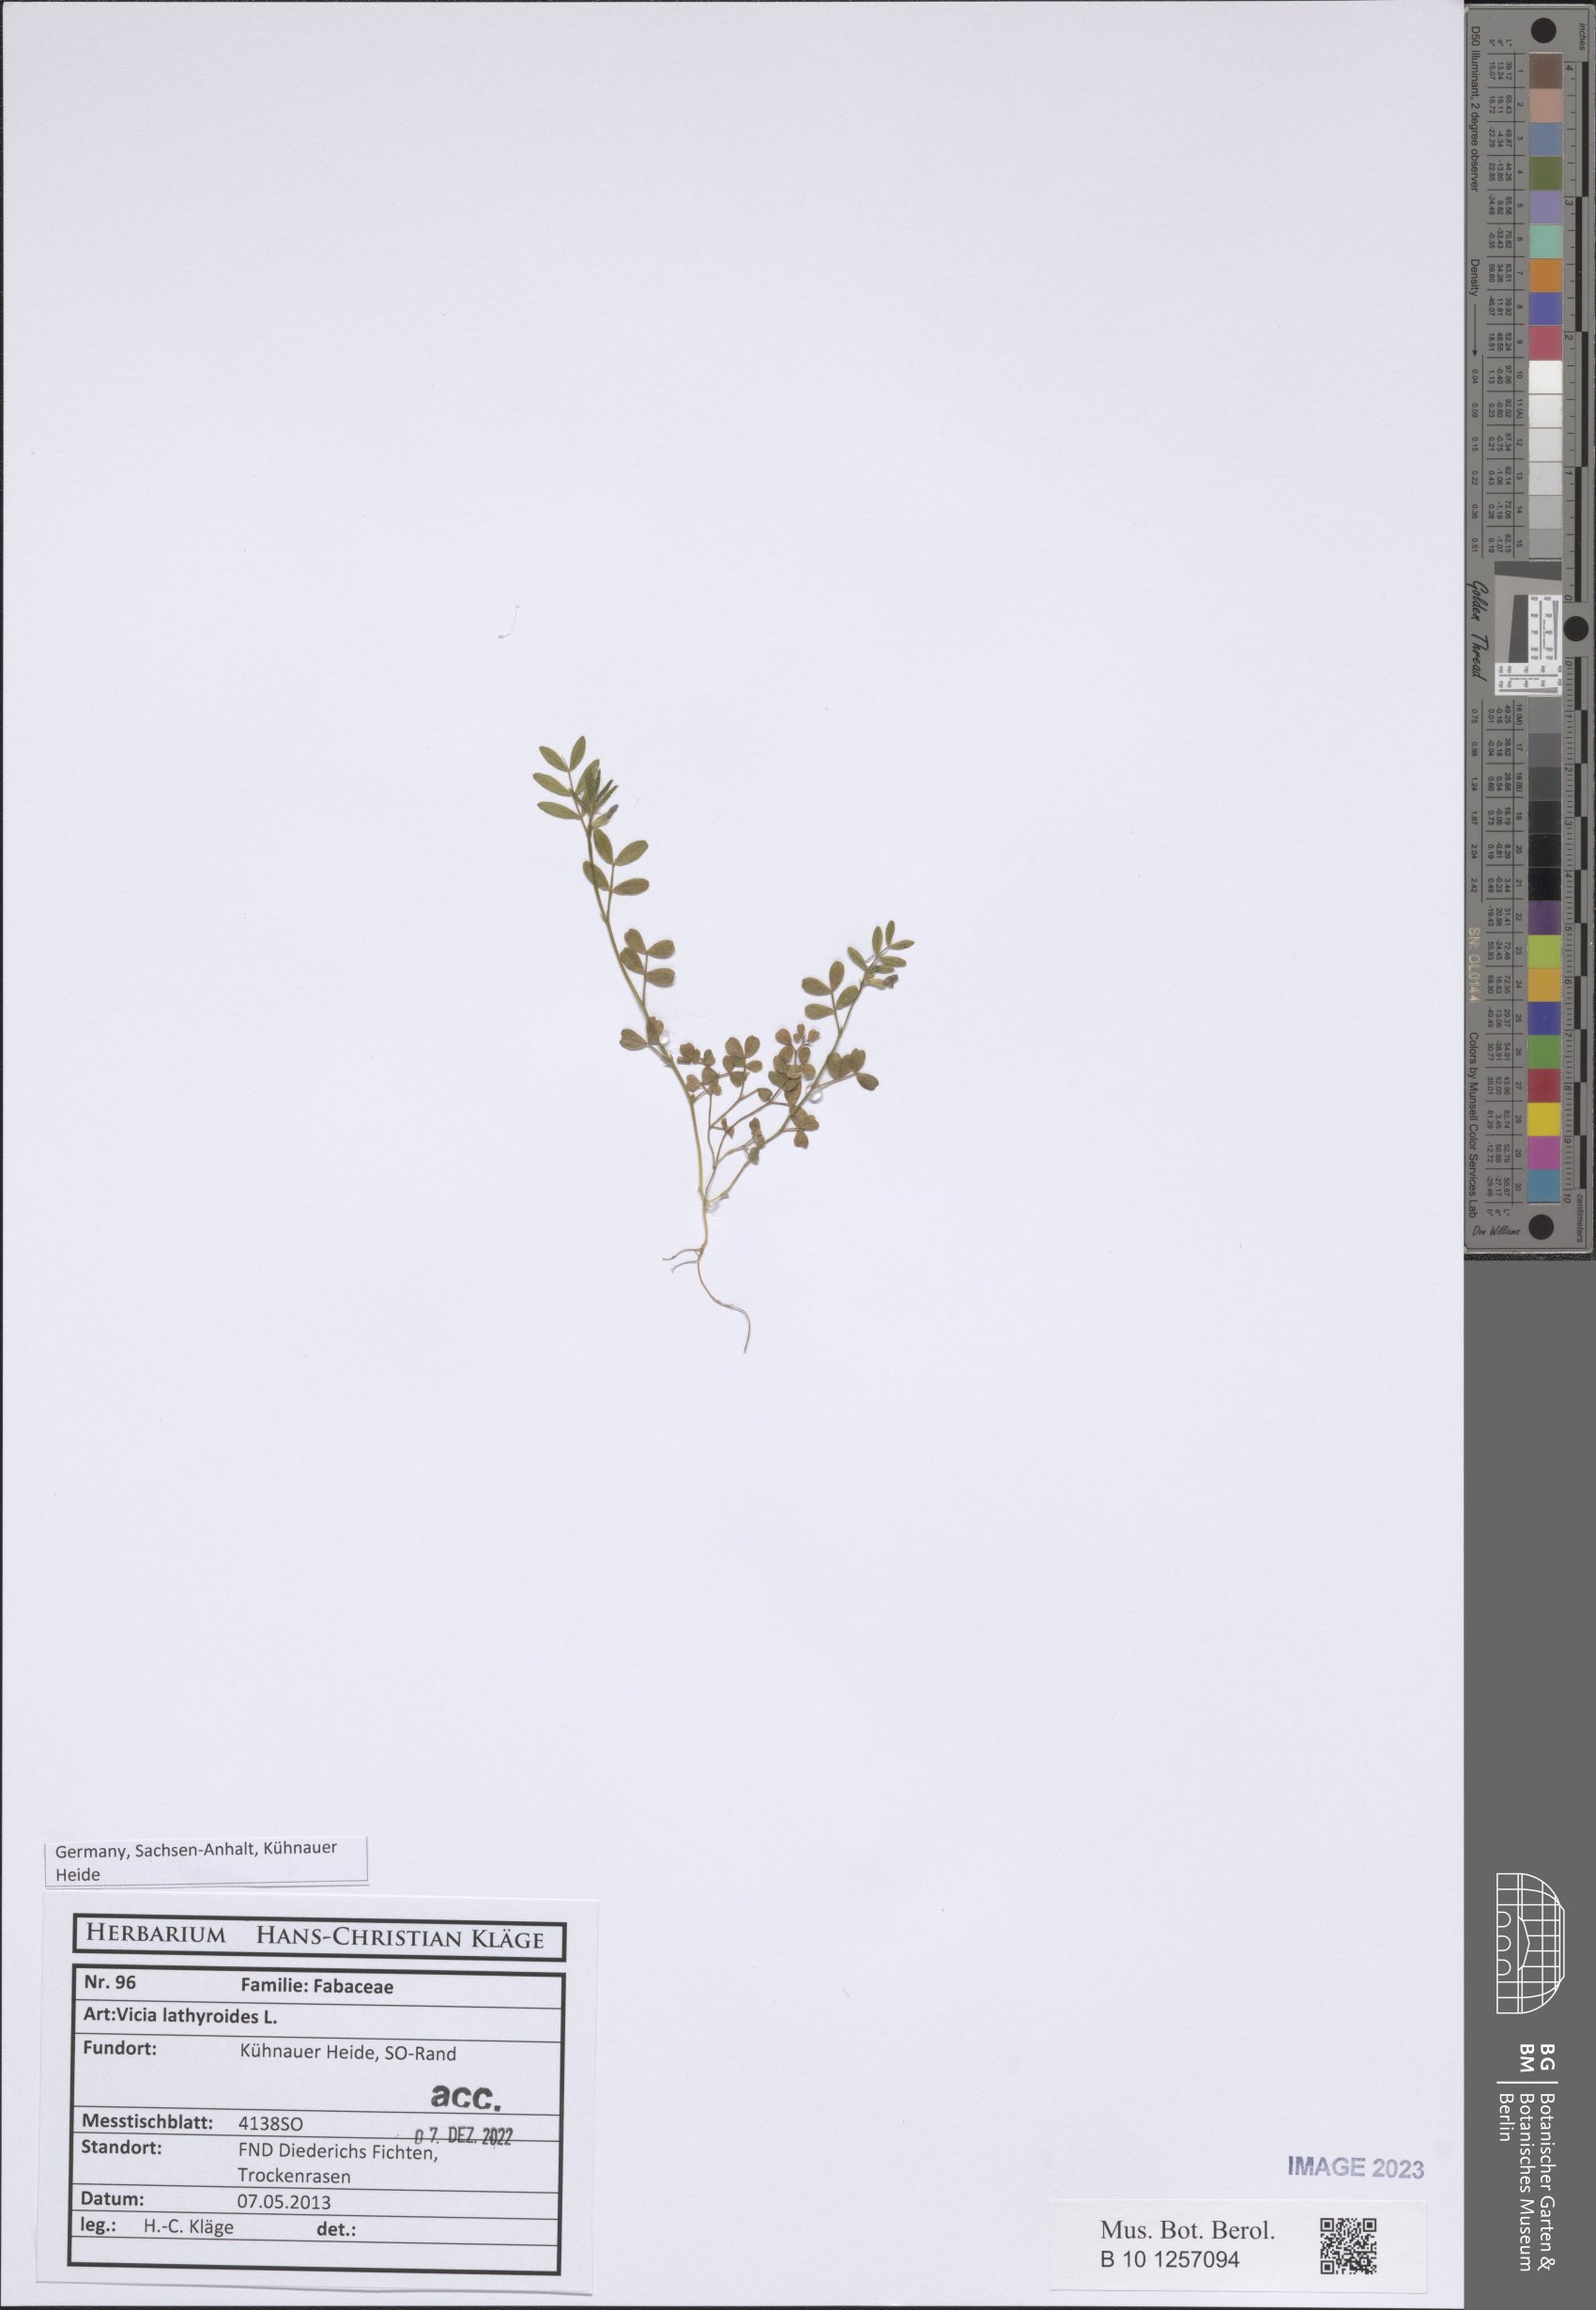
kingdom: Plantae
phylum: Tracheophyta
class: Magnoliopsida
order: Fabales
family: Fabaceae
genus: Vicia
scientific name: Vicia lathyroides
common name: Spring vetch
